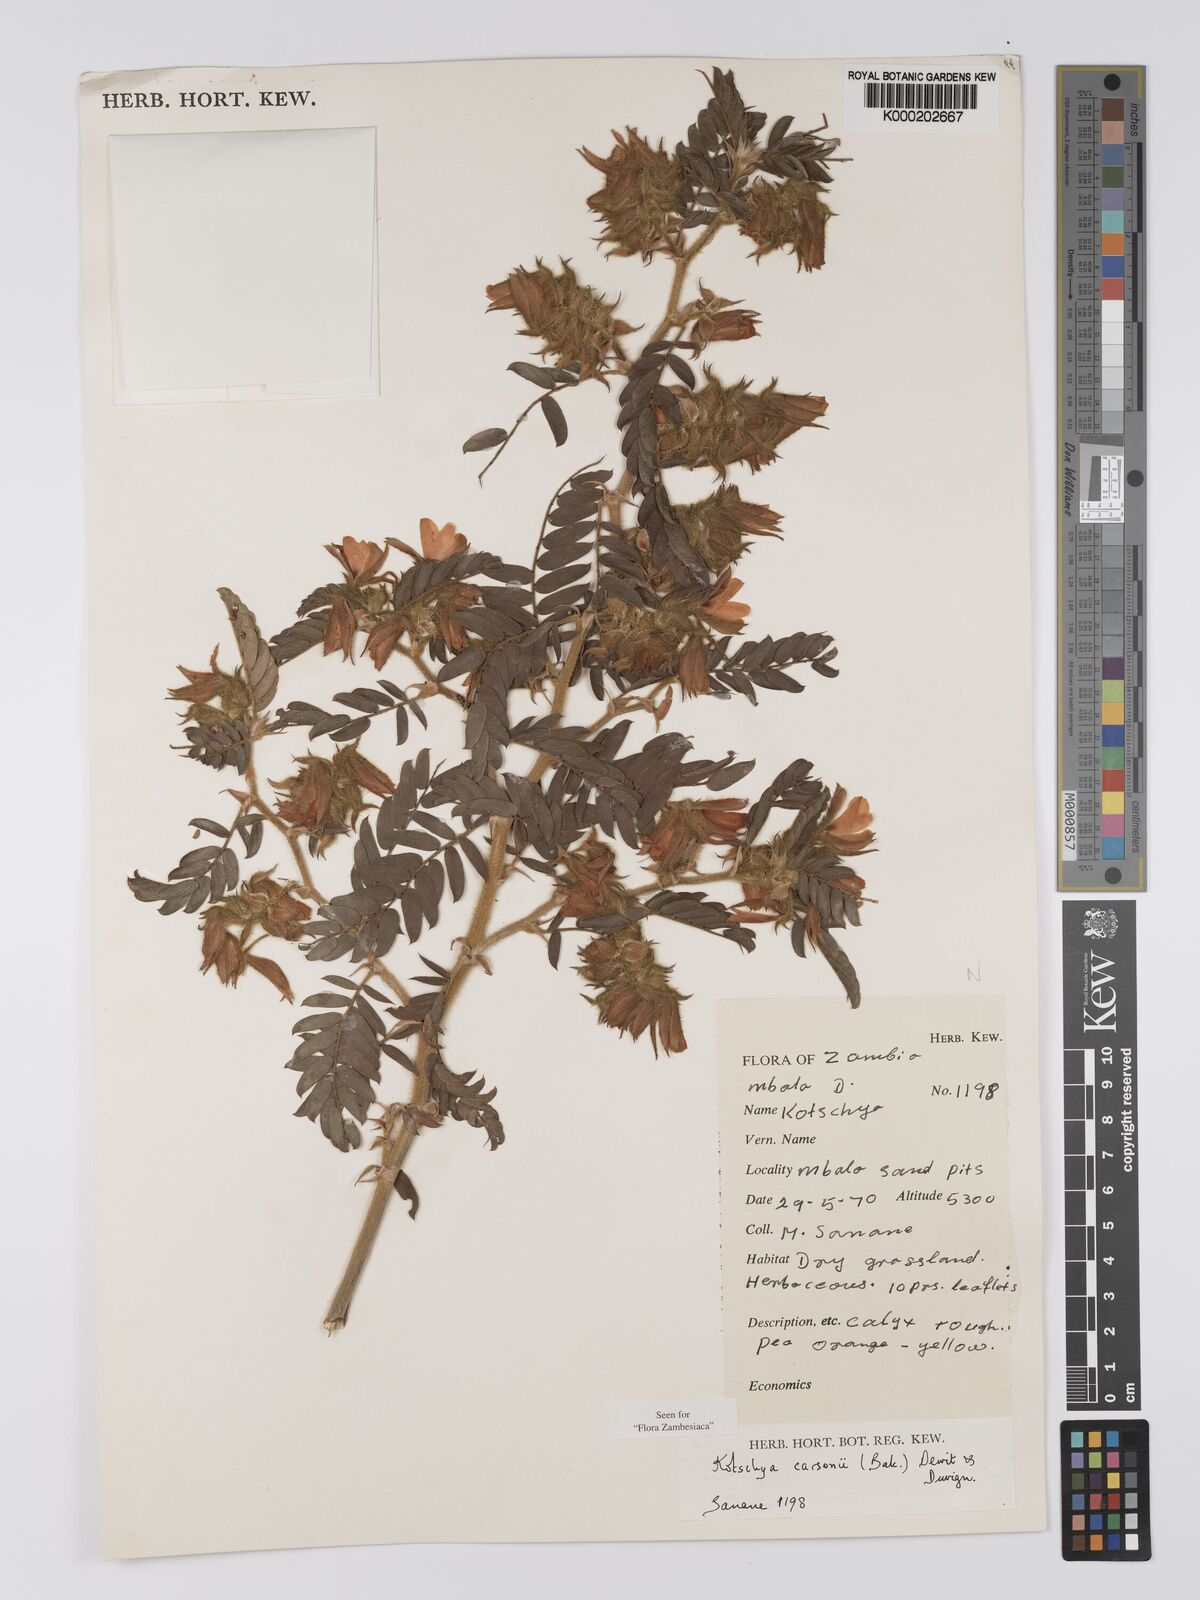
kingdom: Plantae
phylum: Tracheophyta
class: Magnoliopsida
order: Fabales
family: Fabaceae
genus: Kotschya
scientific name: Kotschya carsonii
